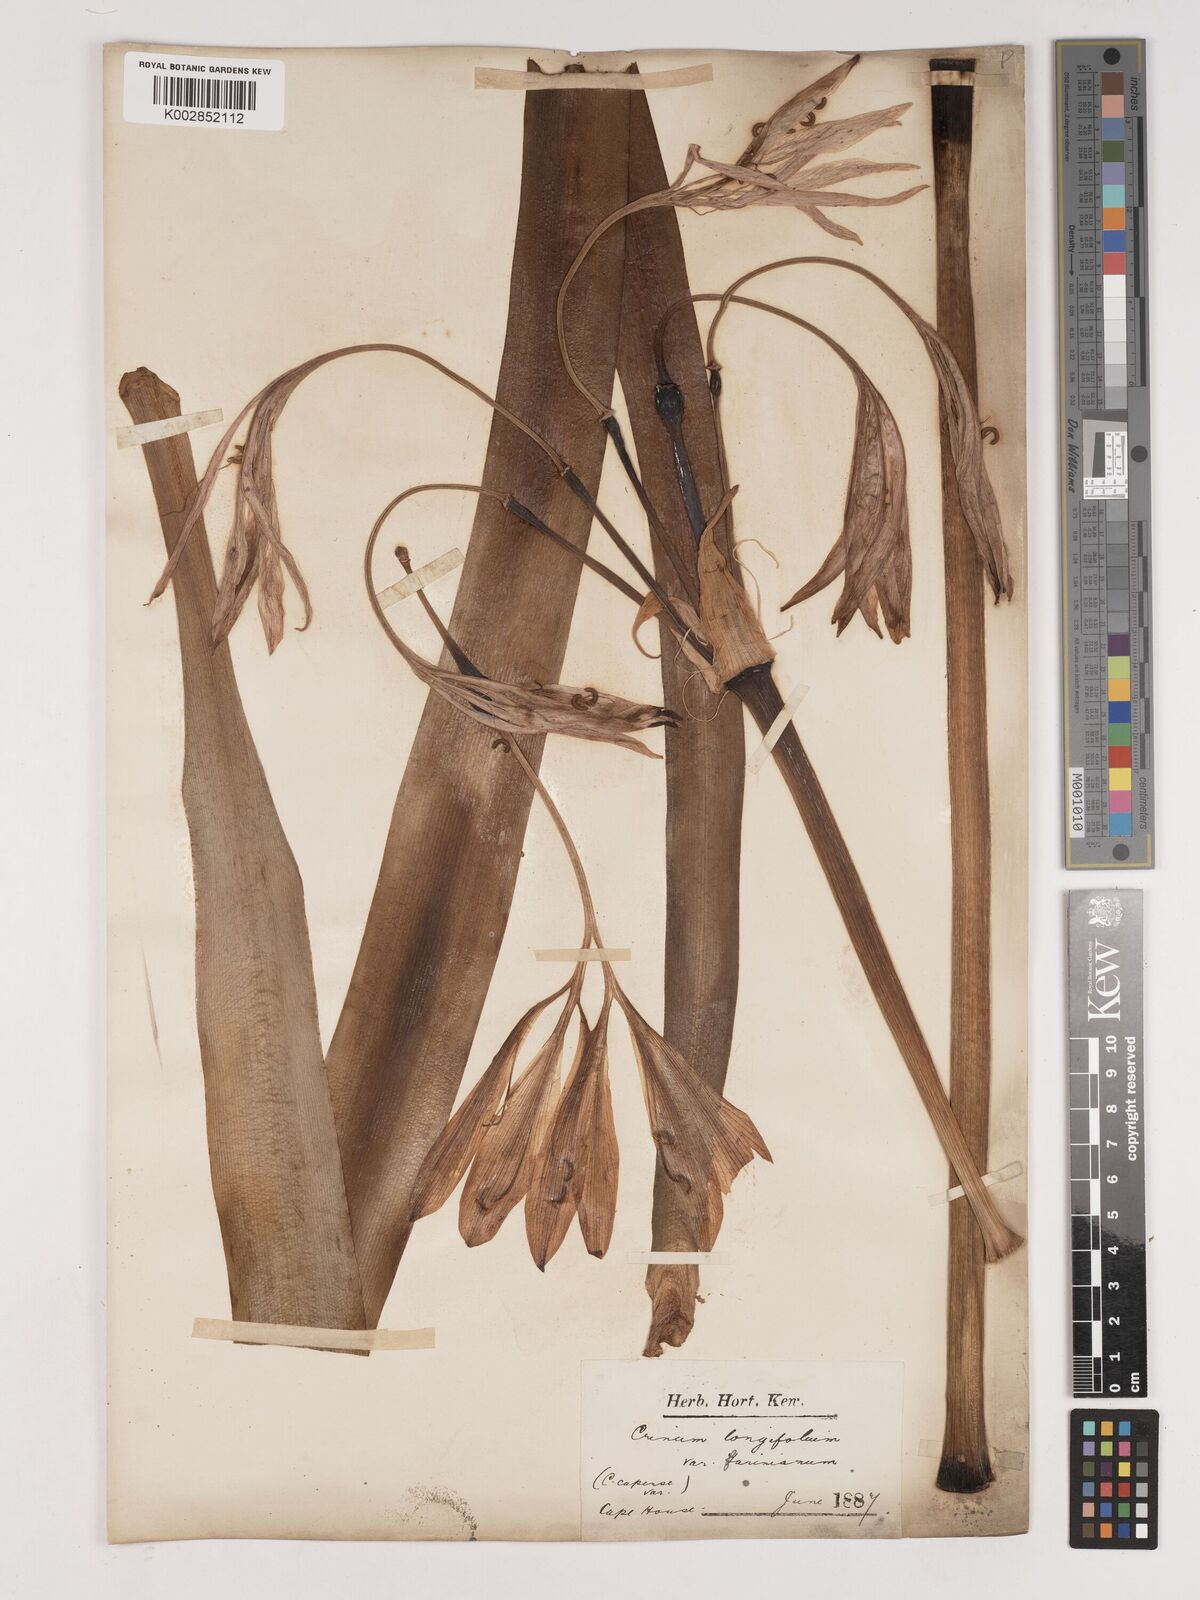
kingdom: Plantae
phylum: Tracheophyta
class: Liliopsida
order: Asparagales
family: Amaryllidaceae
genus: Ammocharis
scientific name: Ammocharis longifolia
